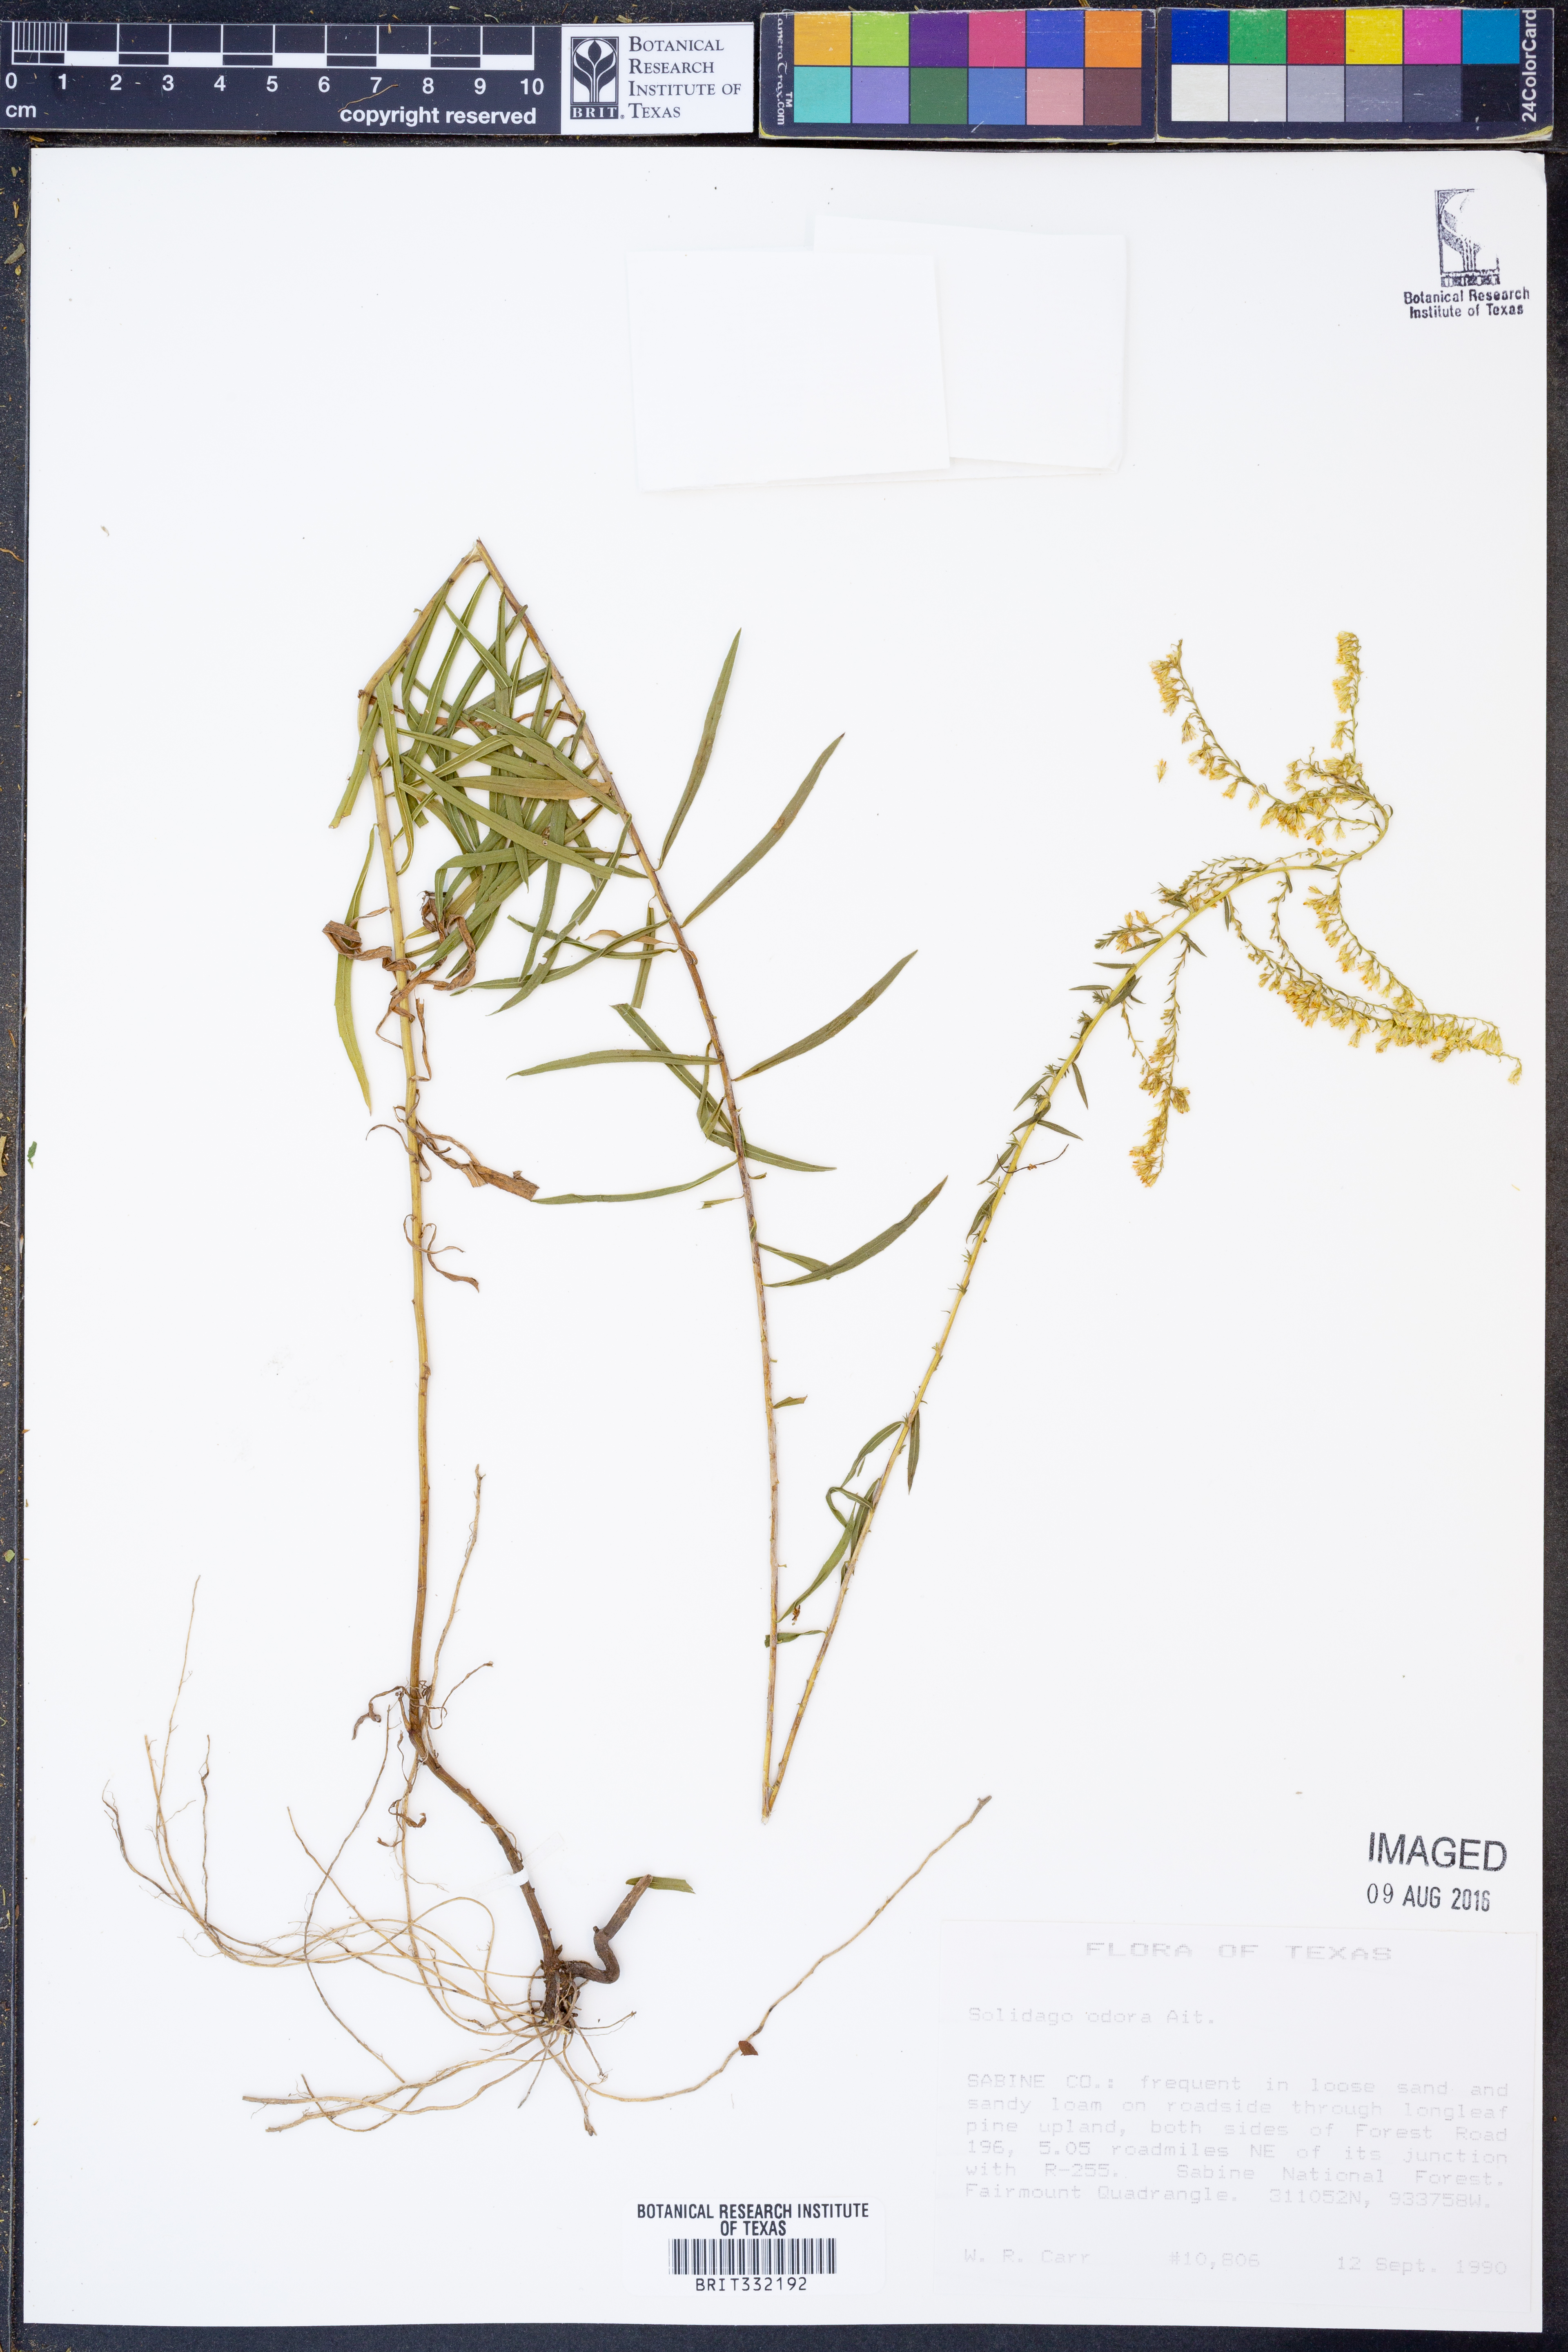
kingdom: Plantae
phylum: Tracheophyta
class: Magnoliopsida
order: Asterales
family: Asteraceae
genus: Solidago
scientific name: Solidago odora
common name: Anise-scented goldenrod
